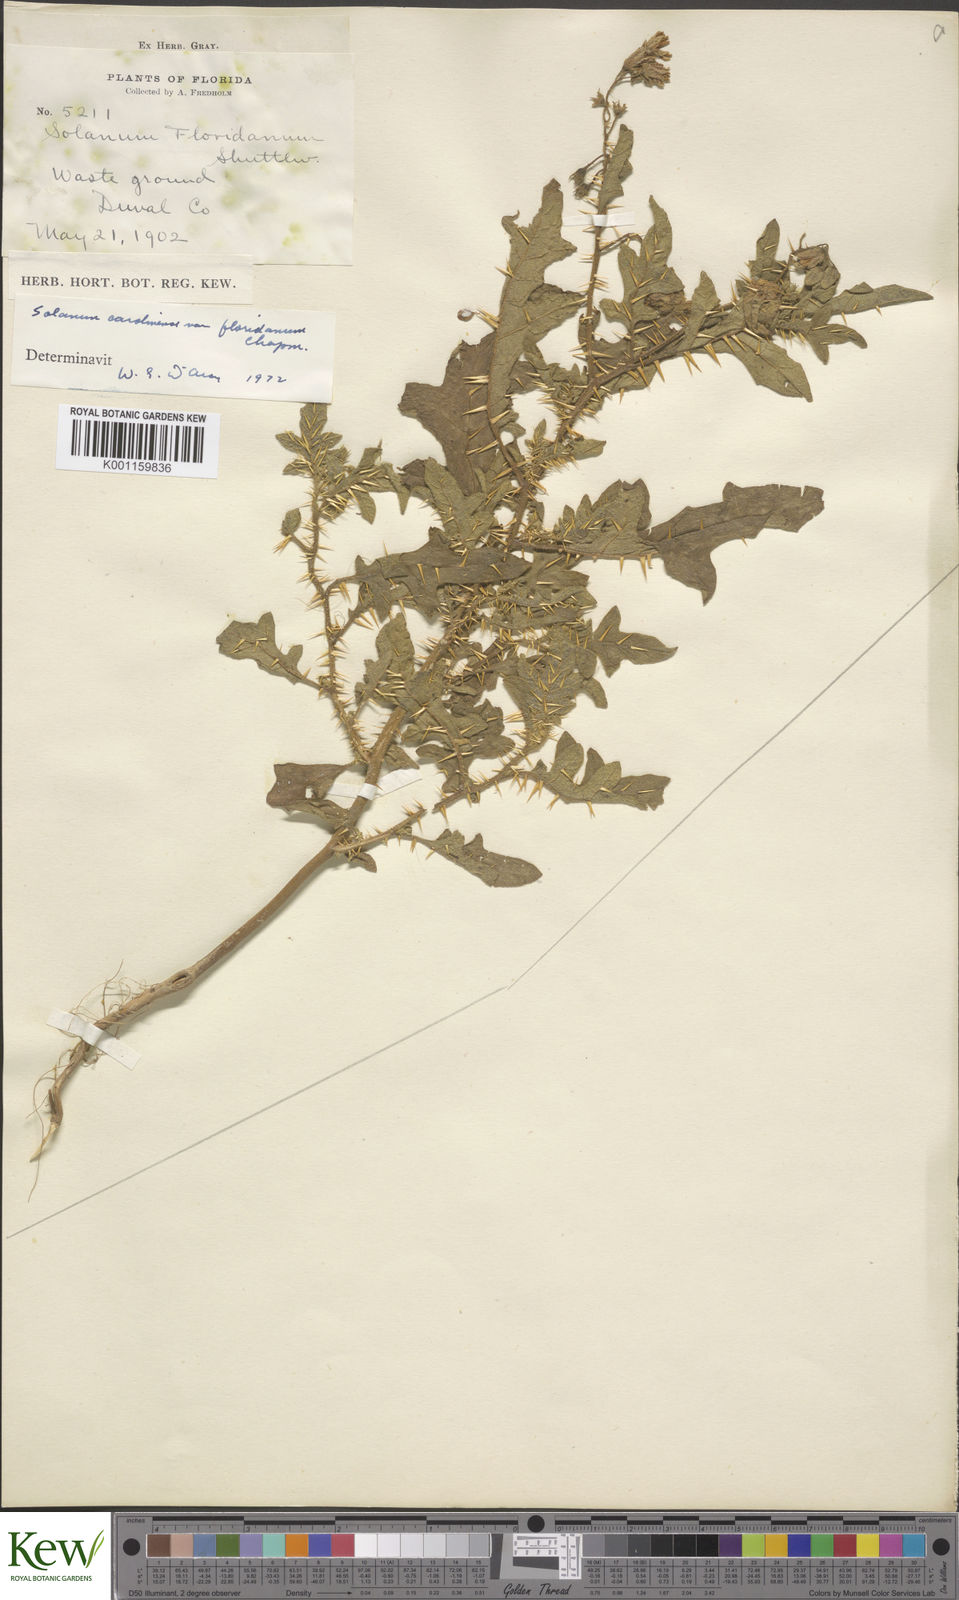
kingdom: Plantae
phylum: Tracheophyta
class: Magnoliopsida
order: Solanales
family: Solanaceae
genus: Solanum
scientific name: Solanum carolinense
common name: Horse-nettle
